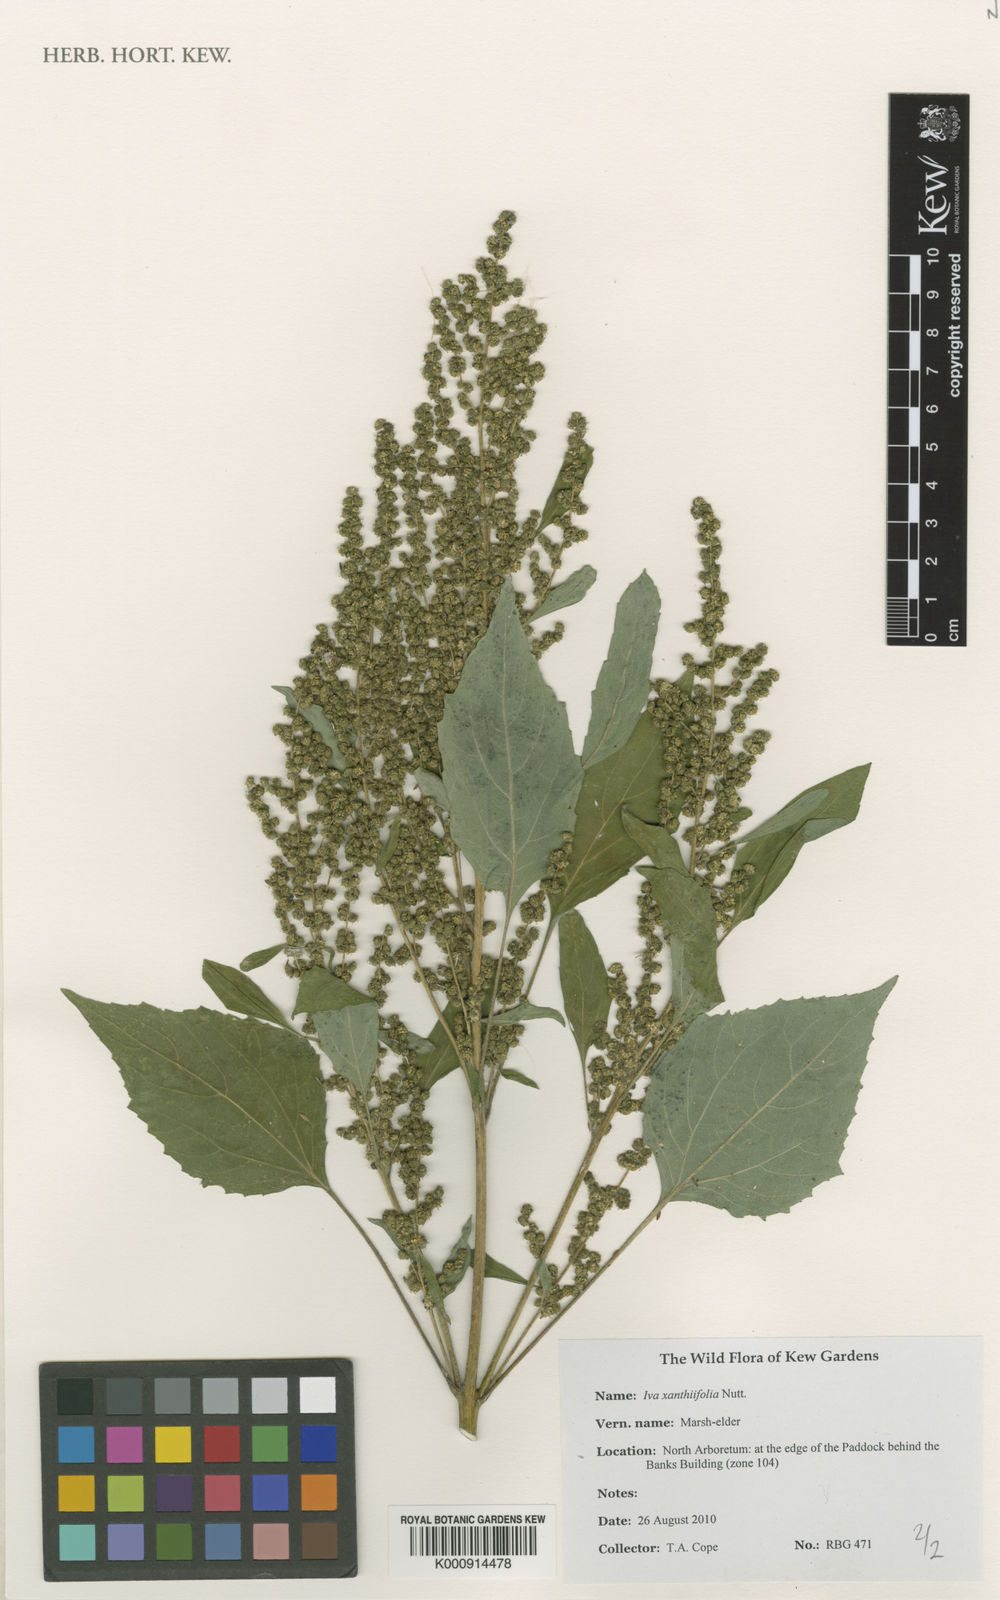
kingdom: Plantae
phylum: Tracheophyta
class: Magnoliopsida
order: Asterales
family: Asteraceae
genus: Cyclachaena
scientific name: Cyclachaena xanthiifolia
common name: Giant sumpweed
